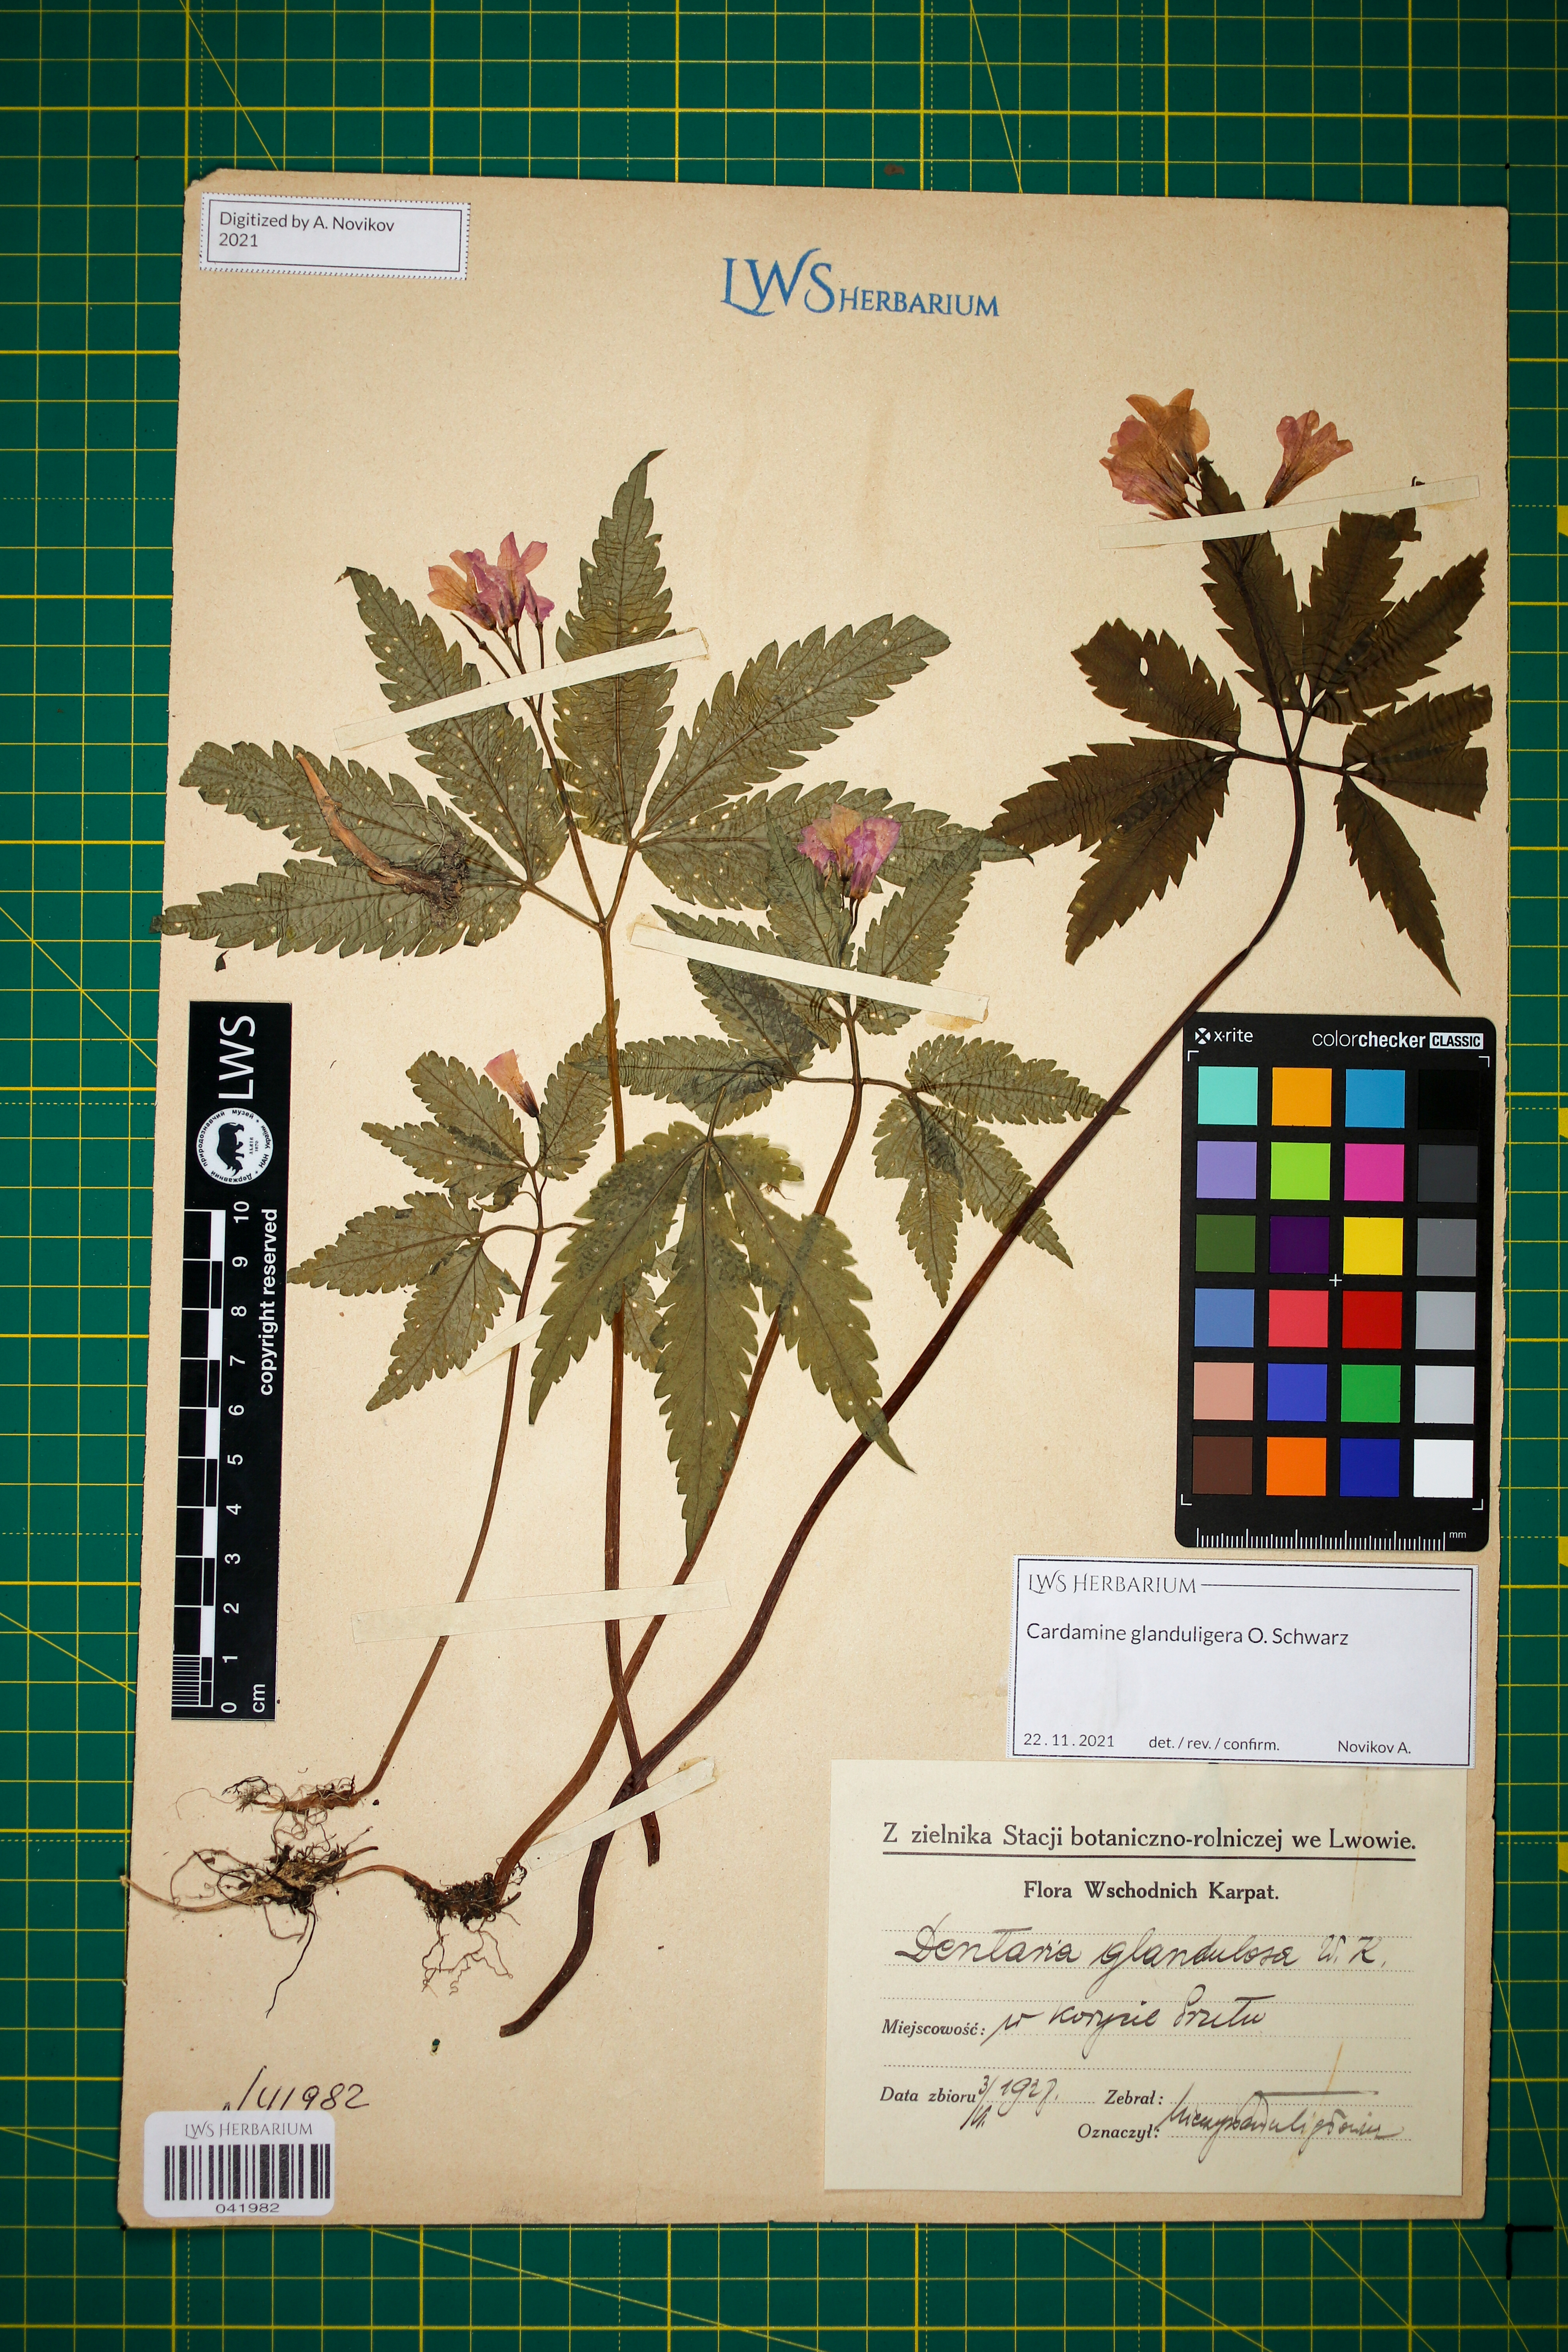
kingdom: Plantae
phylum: Tracheophyta
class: Magnoliopsida
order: Brassicales
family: Brassicaceae
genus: Cardamine
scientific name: Cardamine glanduligera
